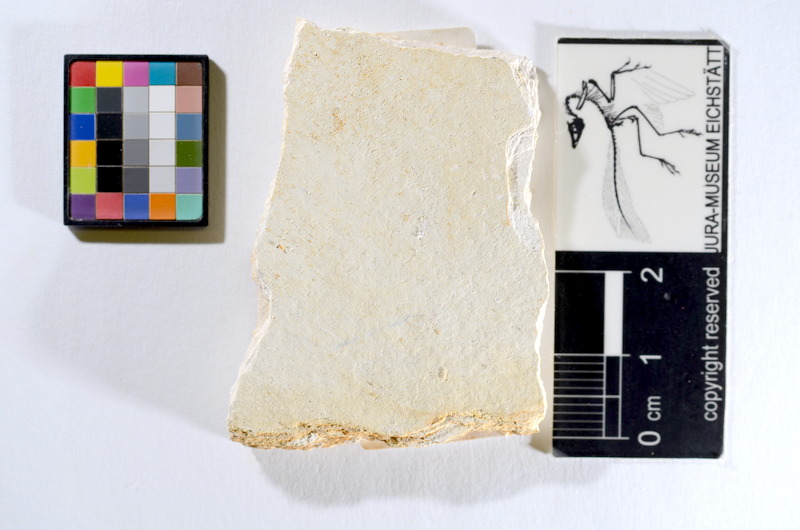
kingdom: Animalia
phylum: Chordata
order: Salmoniformes
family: Orthogonikleithridae
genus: Orthogonikleithrus
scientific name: Orthogonikleithrus hoelli
